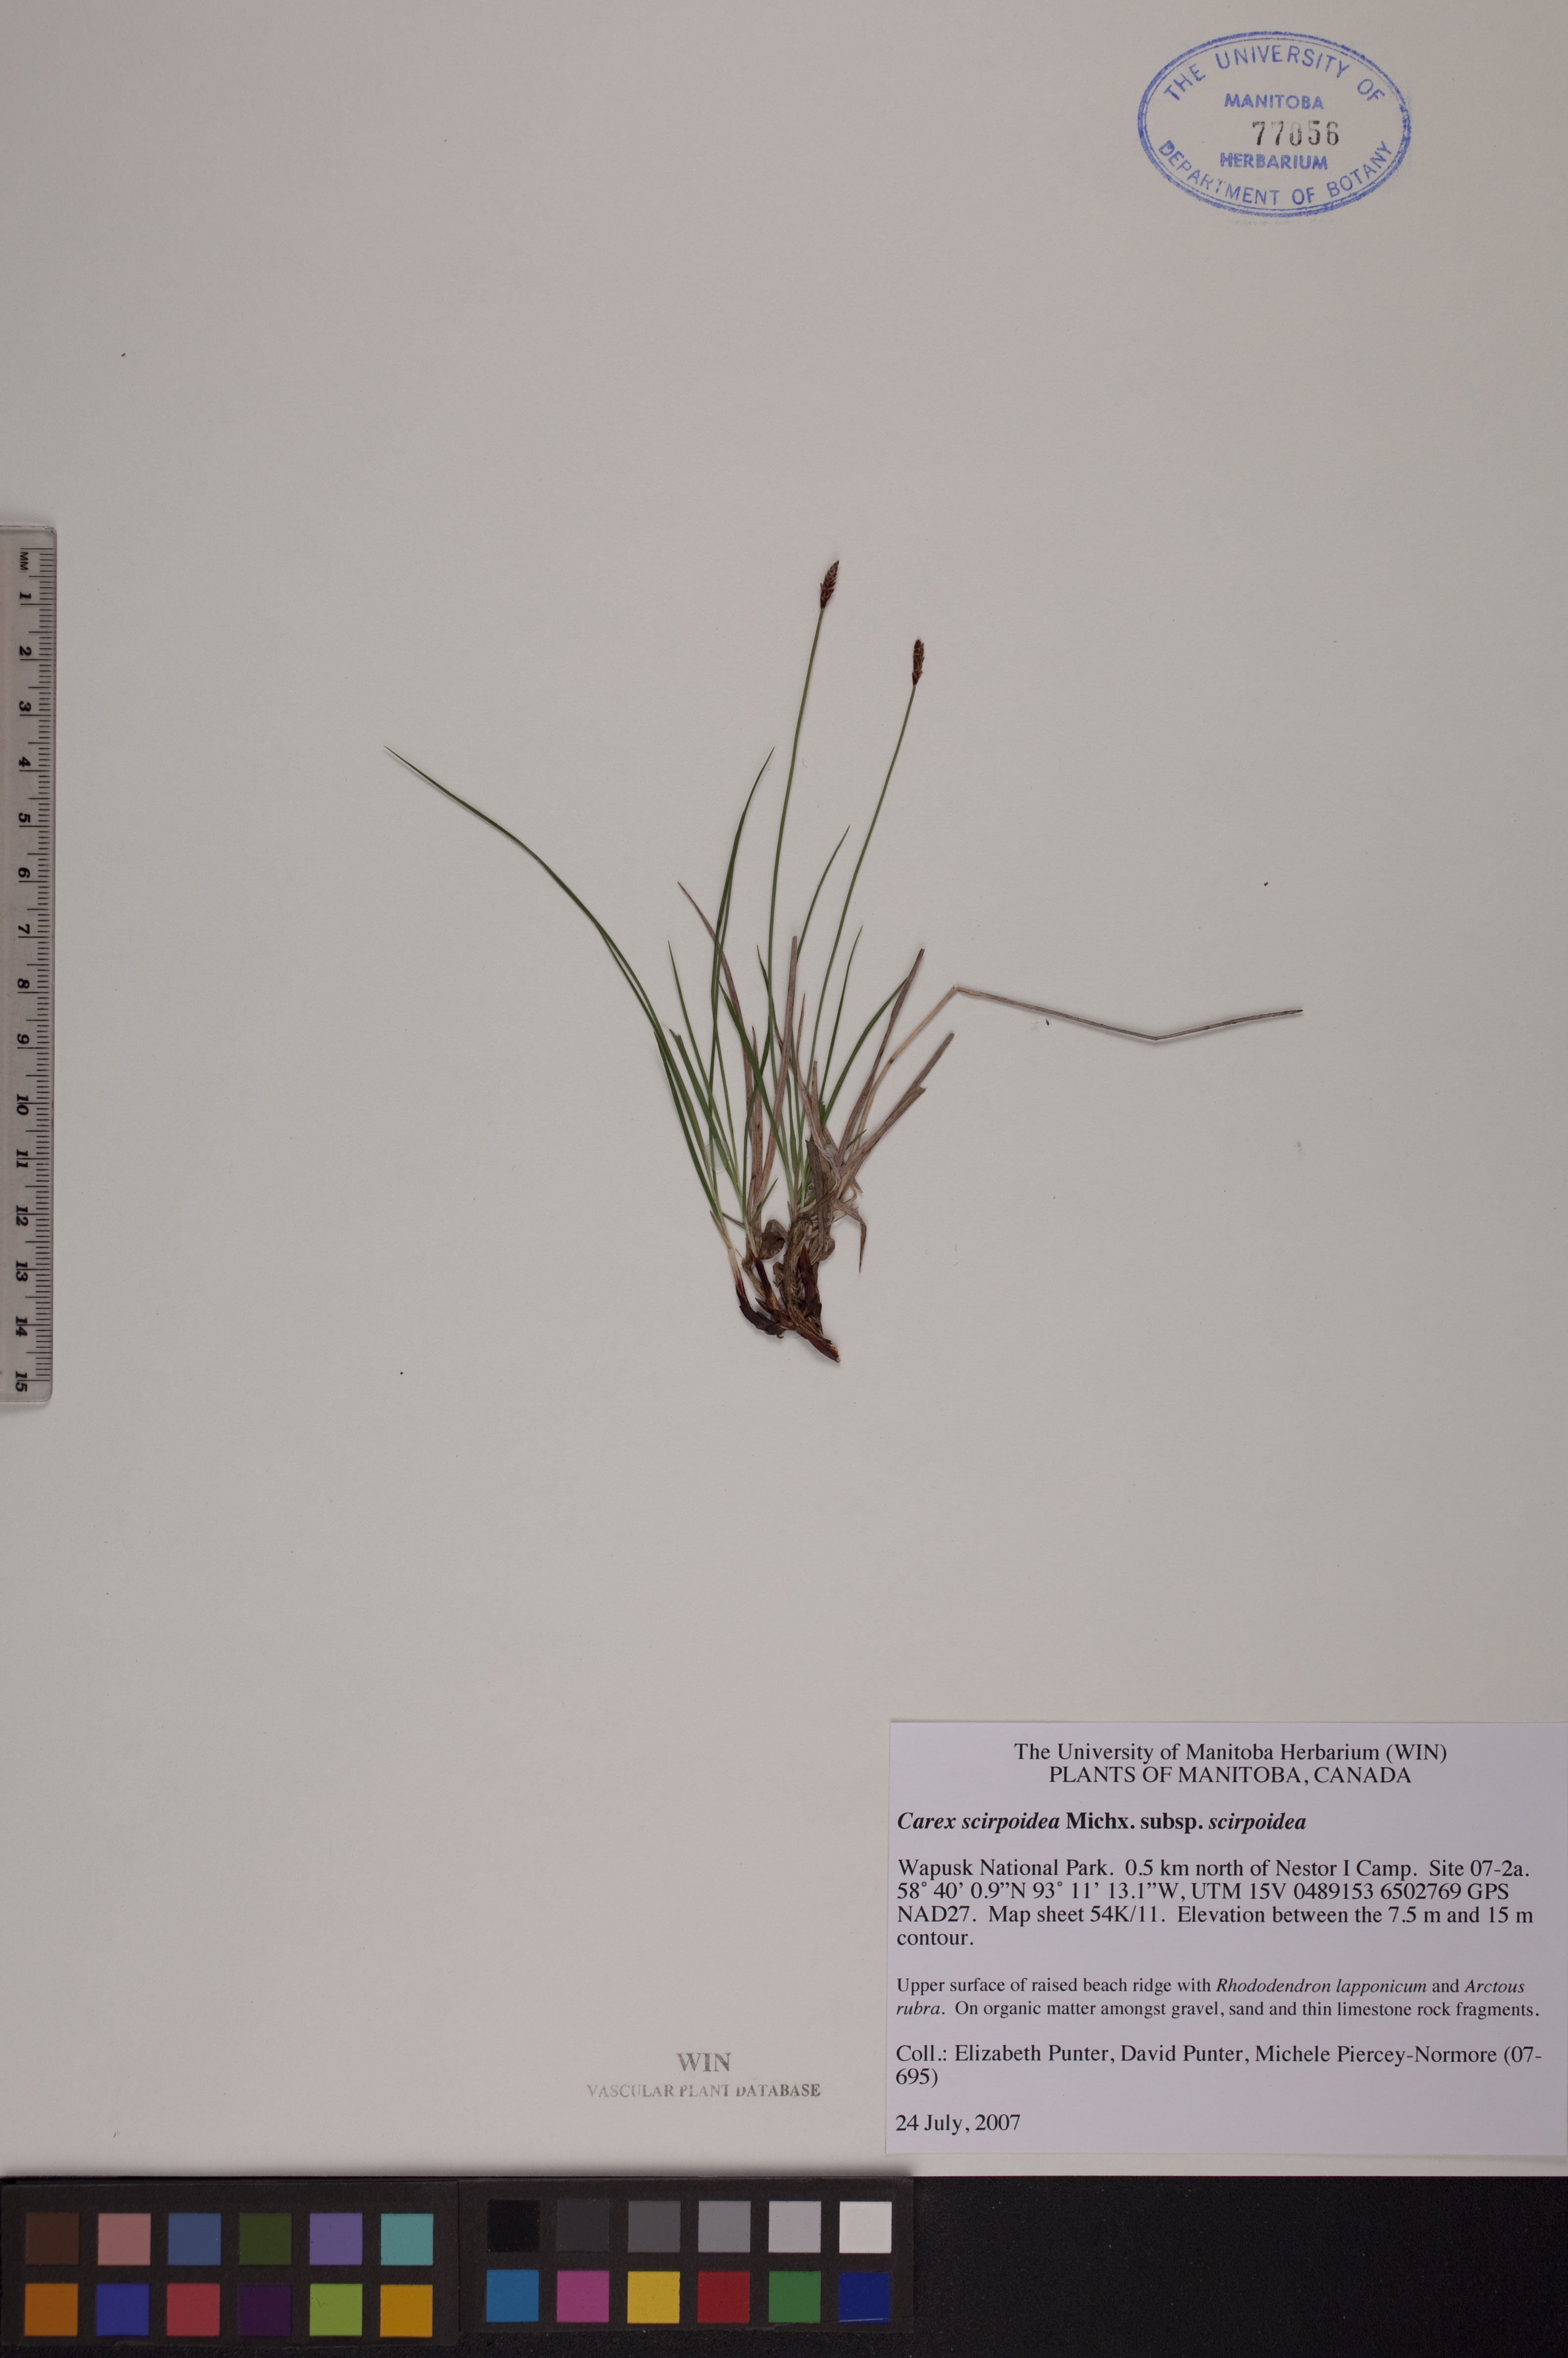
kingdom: Plantae
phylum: Tracheophyta
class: Liliopsida
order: Poales
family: Cyperaceae
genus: Carex
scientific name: Carex scirpoidea
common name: Canada single-spike sedge
